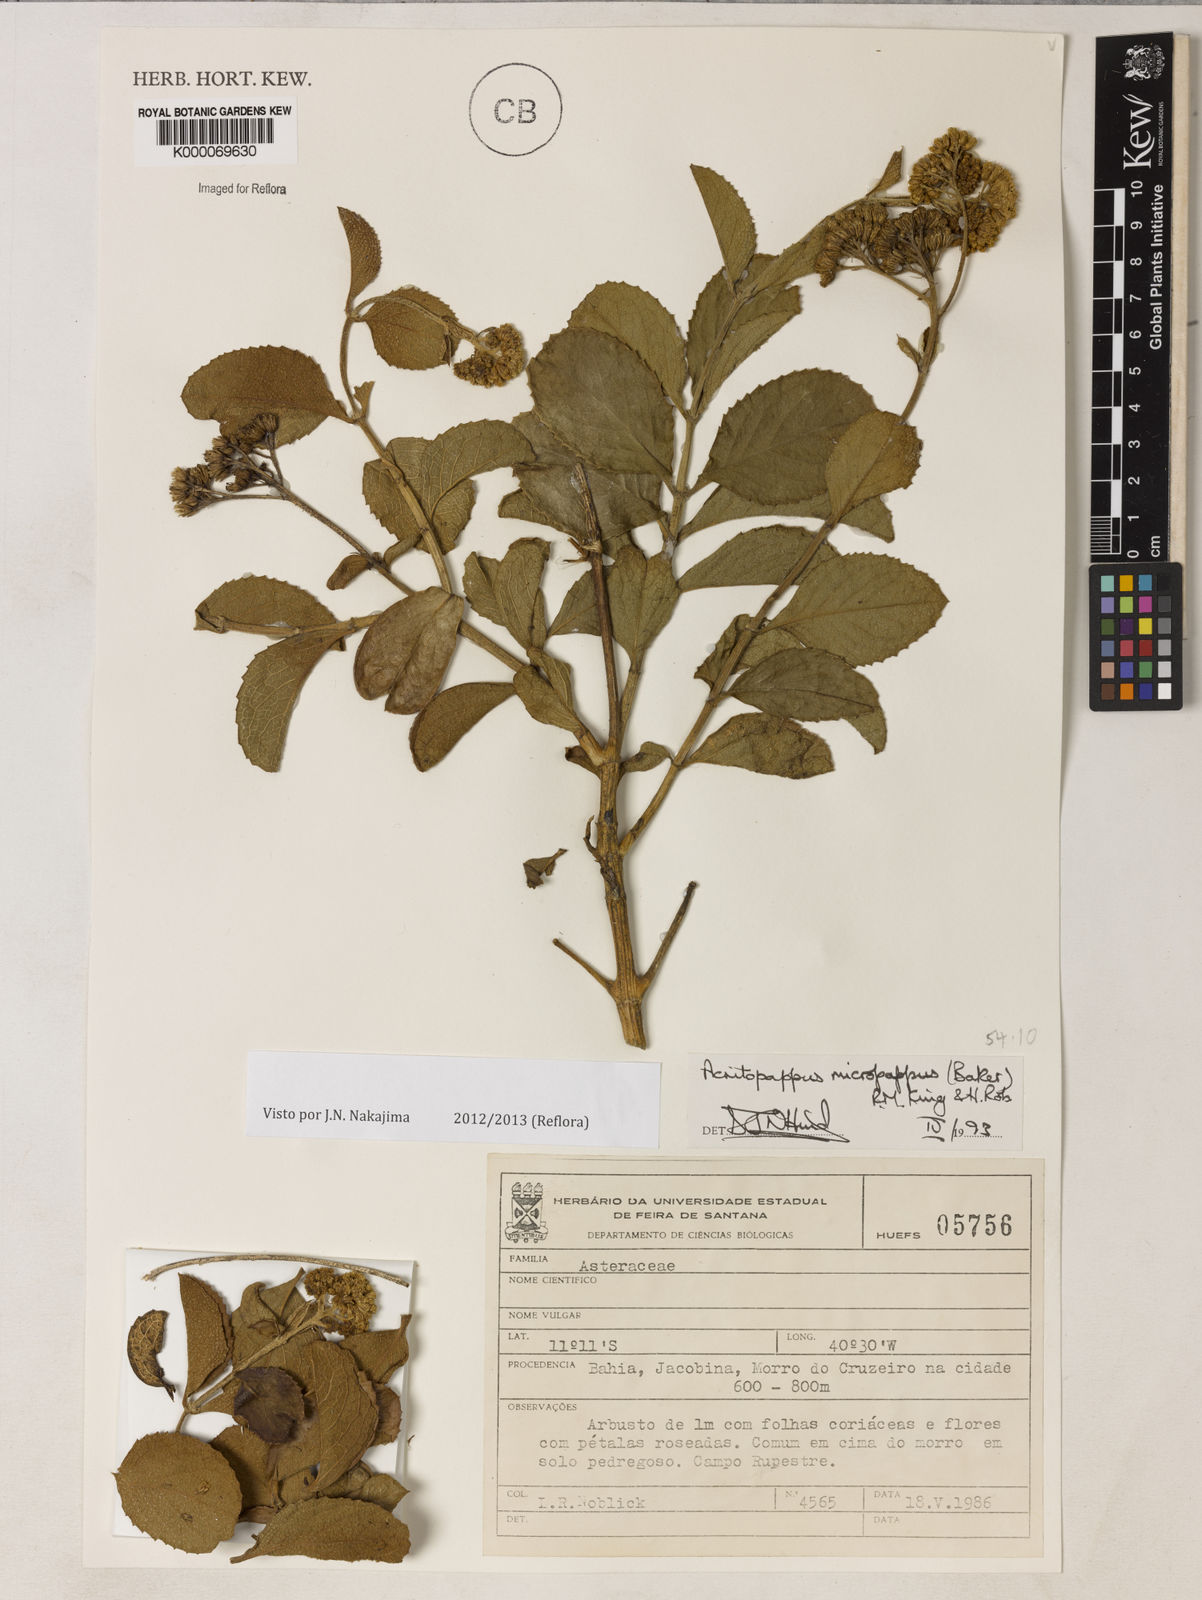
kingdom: Plantae
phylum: Tracheophyta
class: Magnoliopsida
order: Asterales
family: Asteraceae
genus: Acritopappus
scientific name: Acritopappus micropappus
